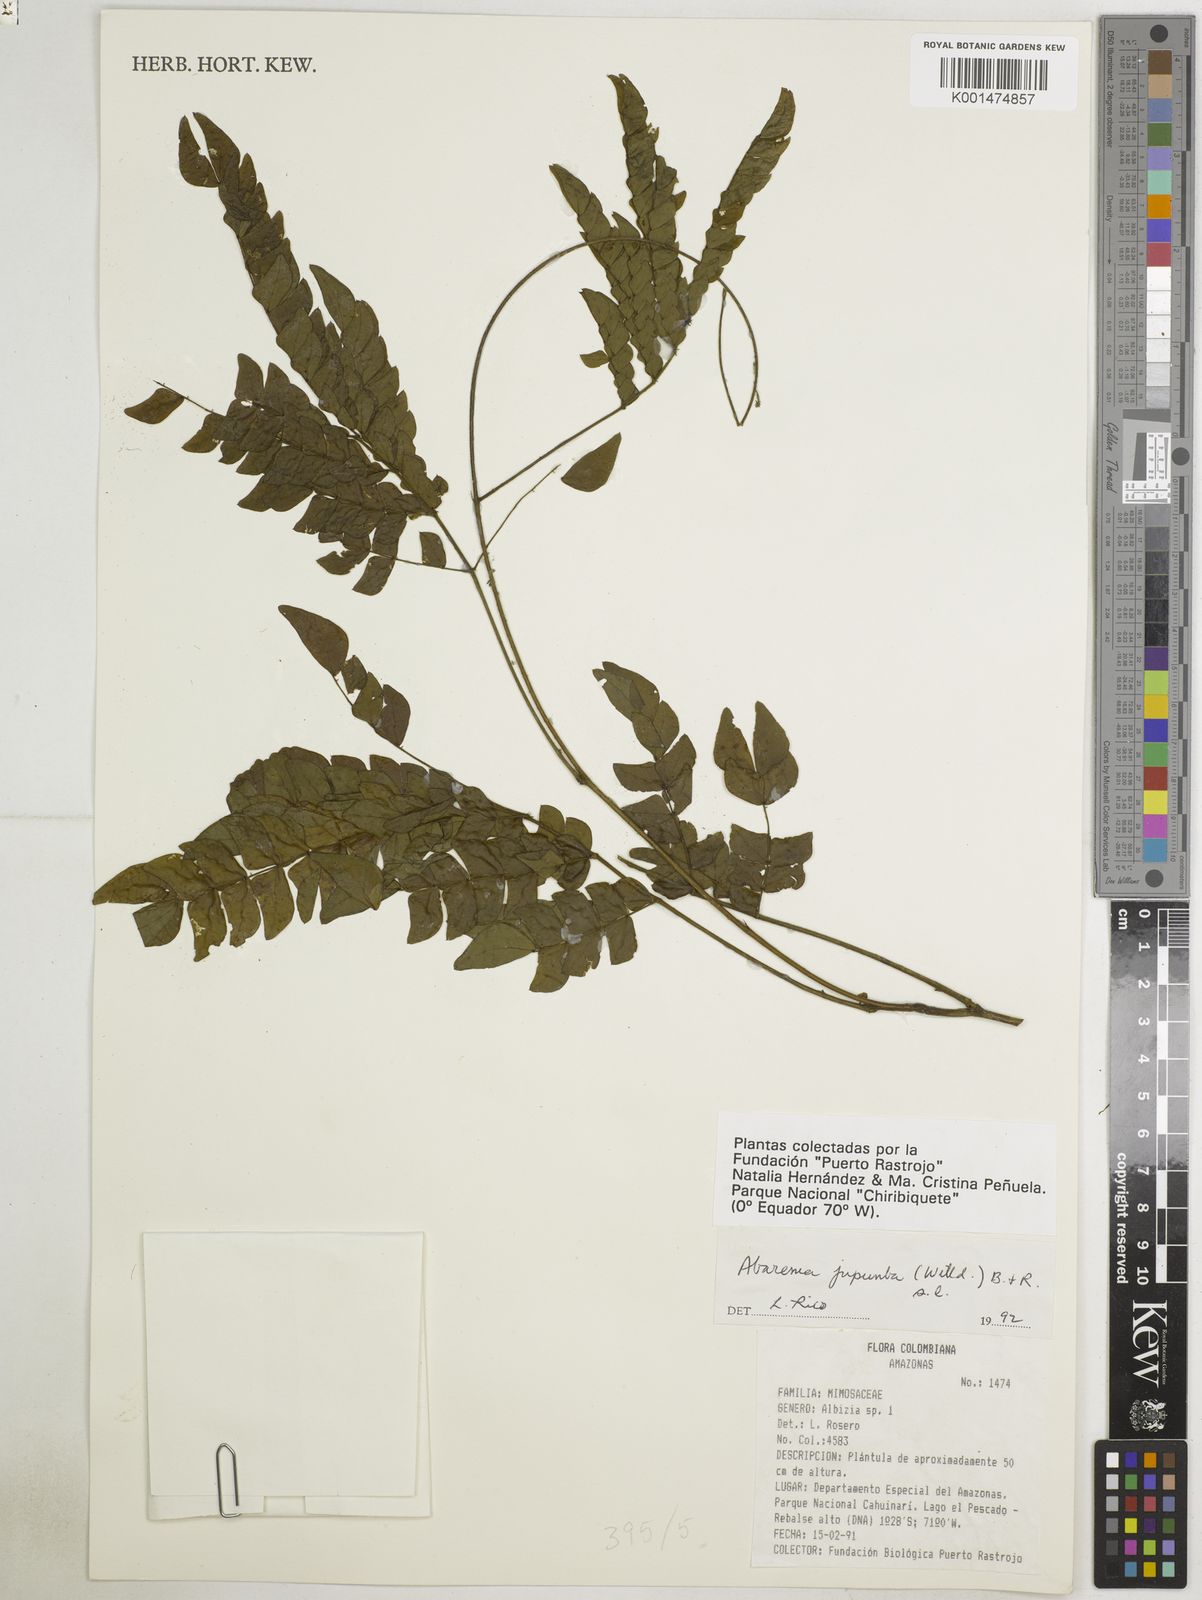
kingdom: Plantae
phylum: Tracheophyta
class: Magnoliopsida
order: Fabales
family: Fabaceae
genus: Jupunba
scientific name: Jupunba trapezifolia
